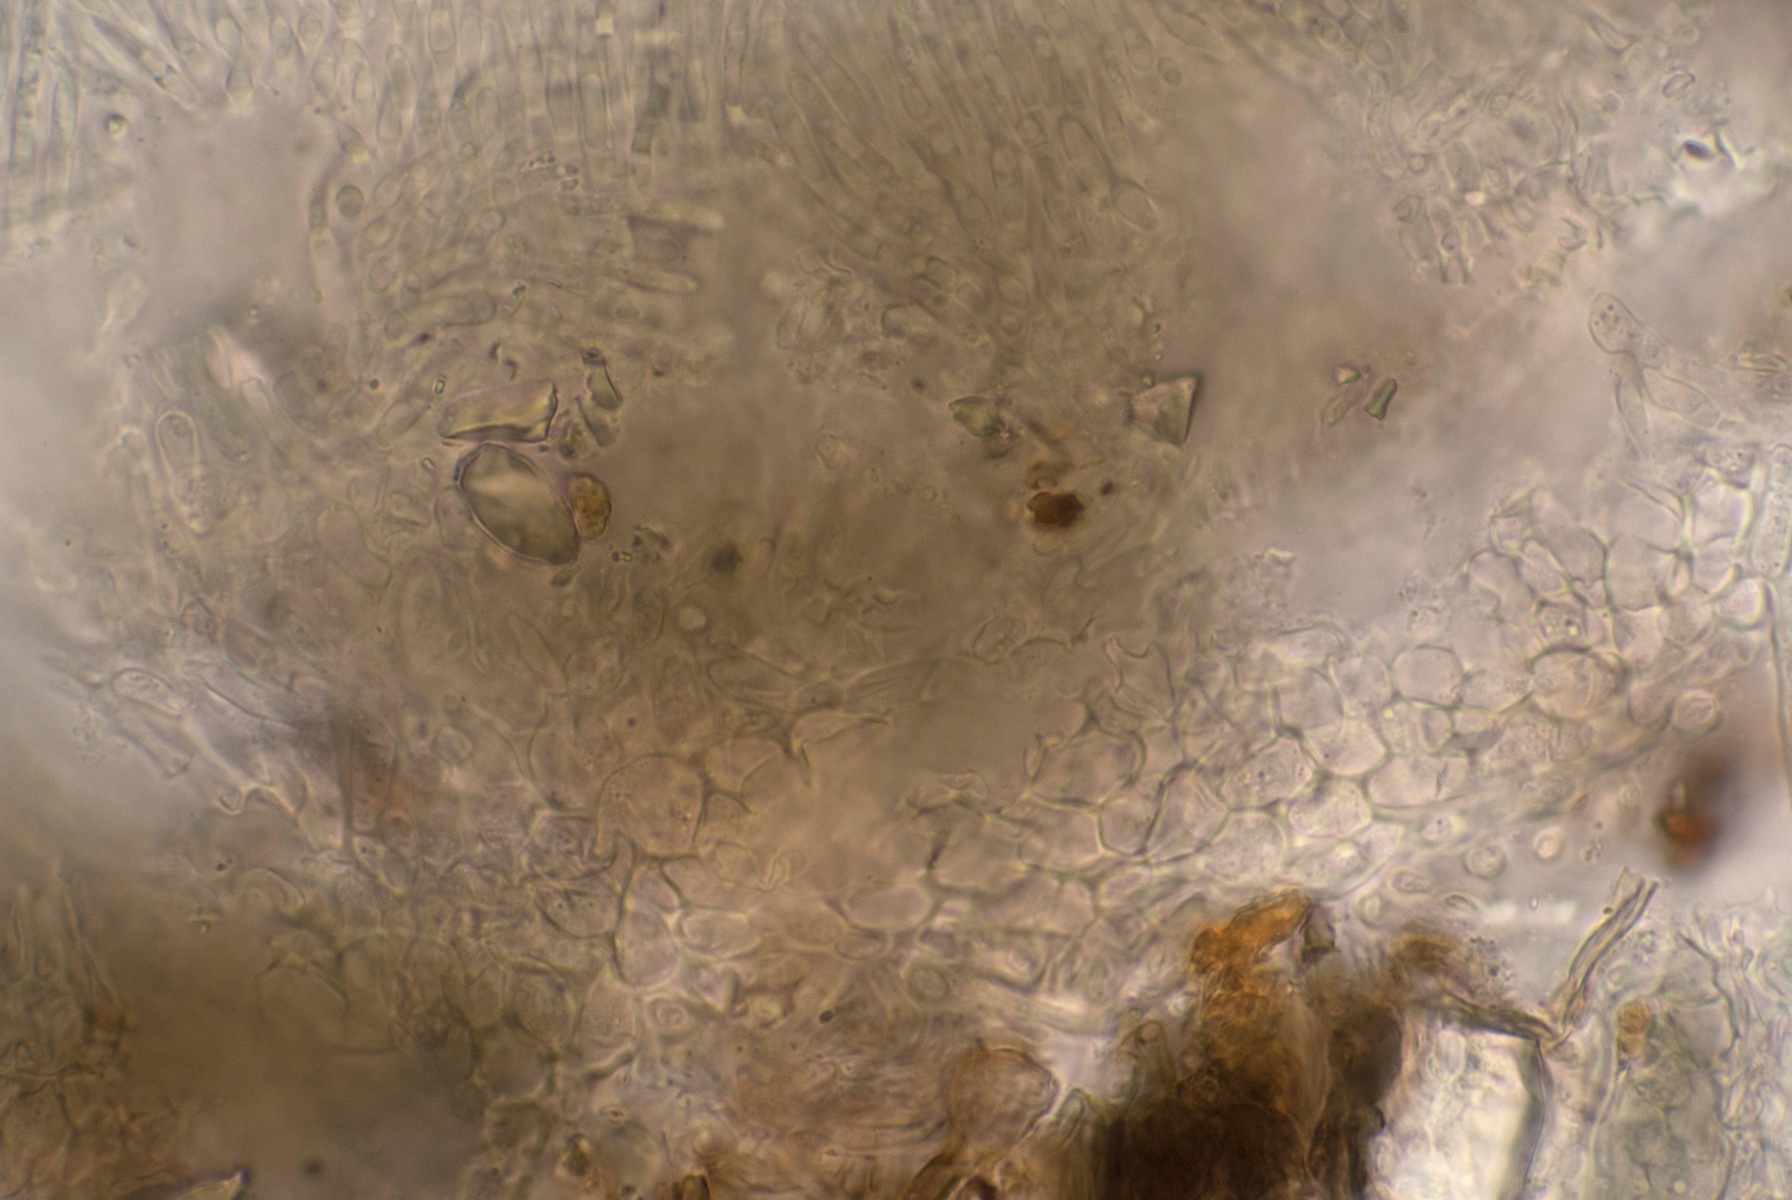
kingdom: Fungi
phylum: Ascomycota
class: Leotiomycetes
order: Helotiales
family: Ploettnerulaceae
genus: Pyrenopeziza
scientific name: Pyrenopeziza petiolaris
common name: ahorn-kerneskive
